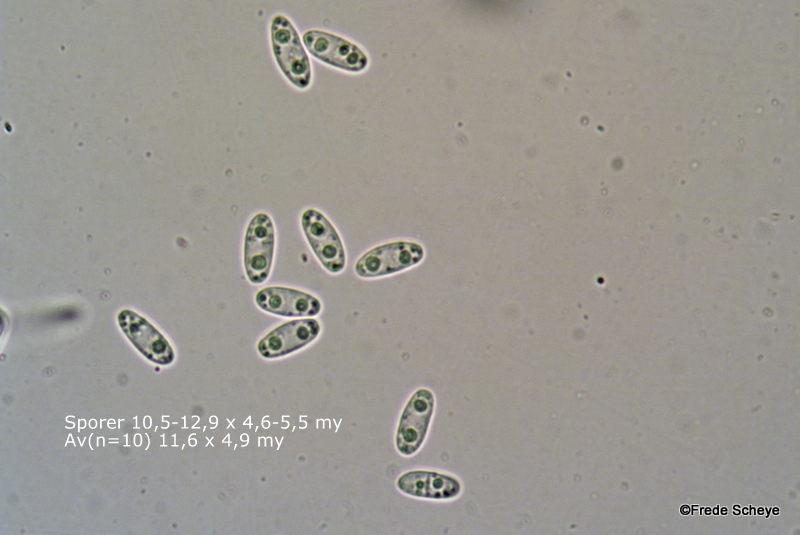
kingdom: Fungi
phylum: Ascomycota
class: Leotiomycetes
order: Helotiales
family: Pezizellaceae
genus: Calycina
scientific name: Calycina citrina
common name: almindelig gulskive
